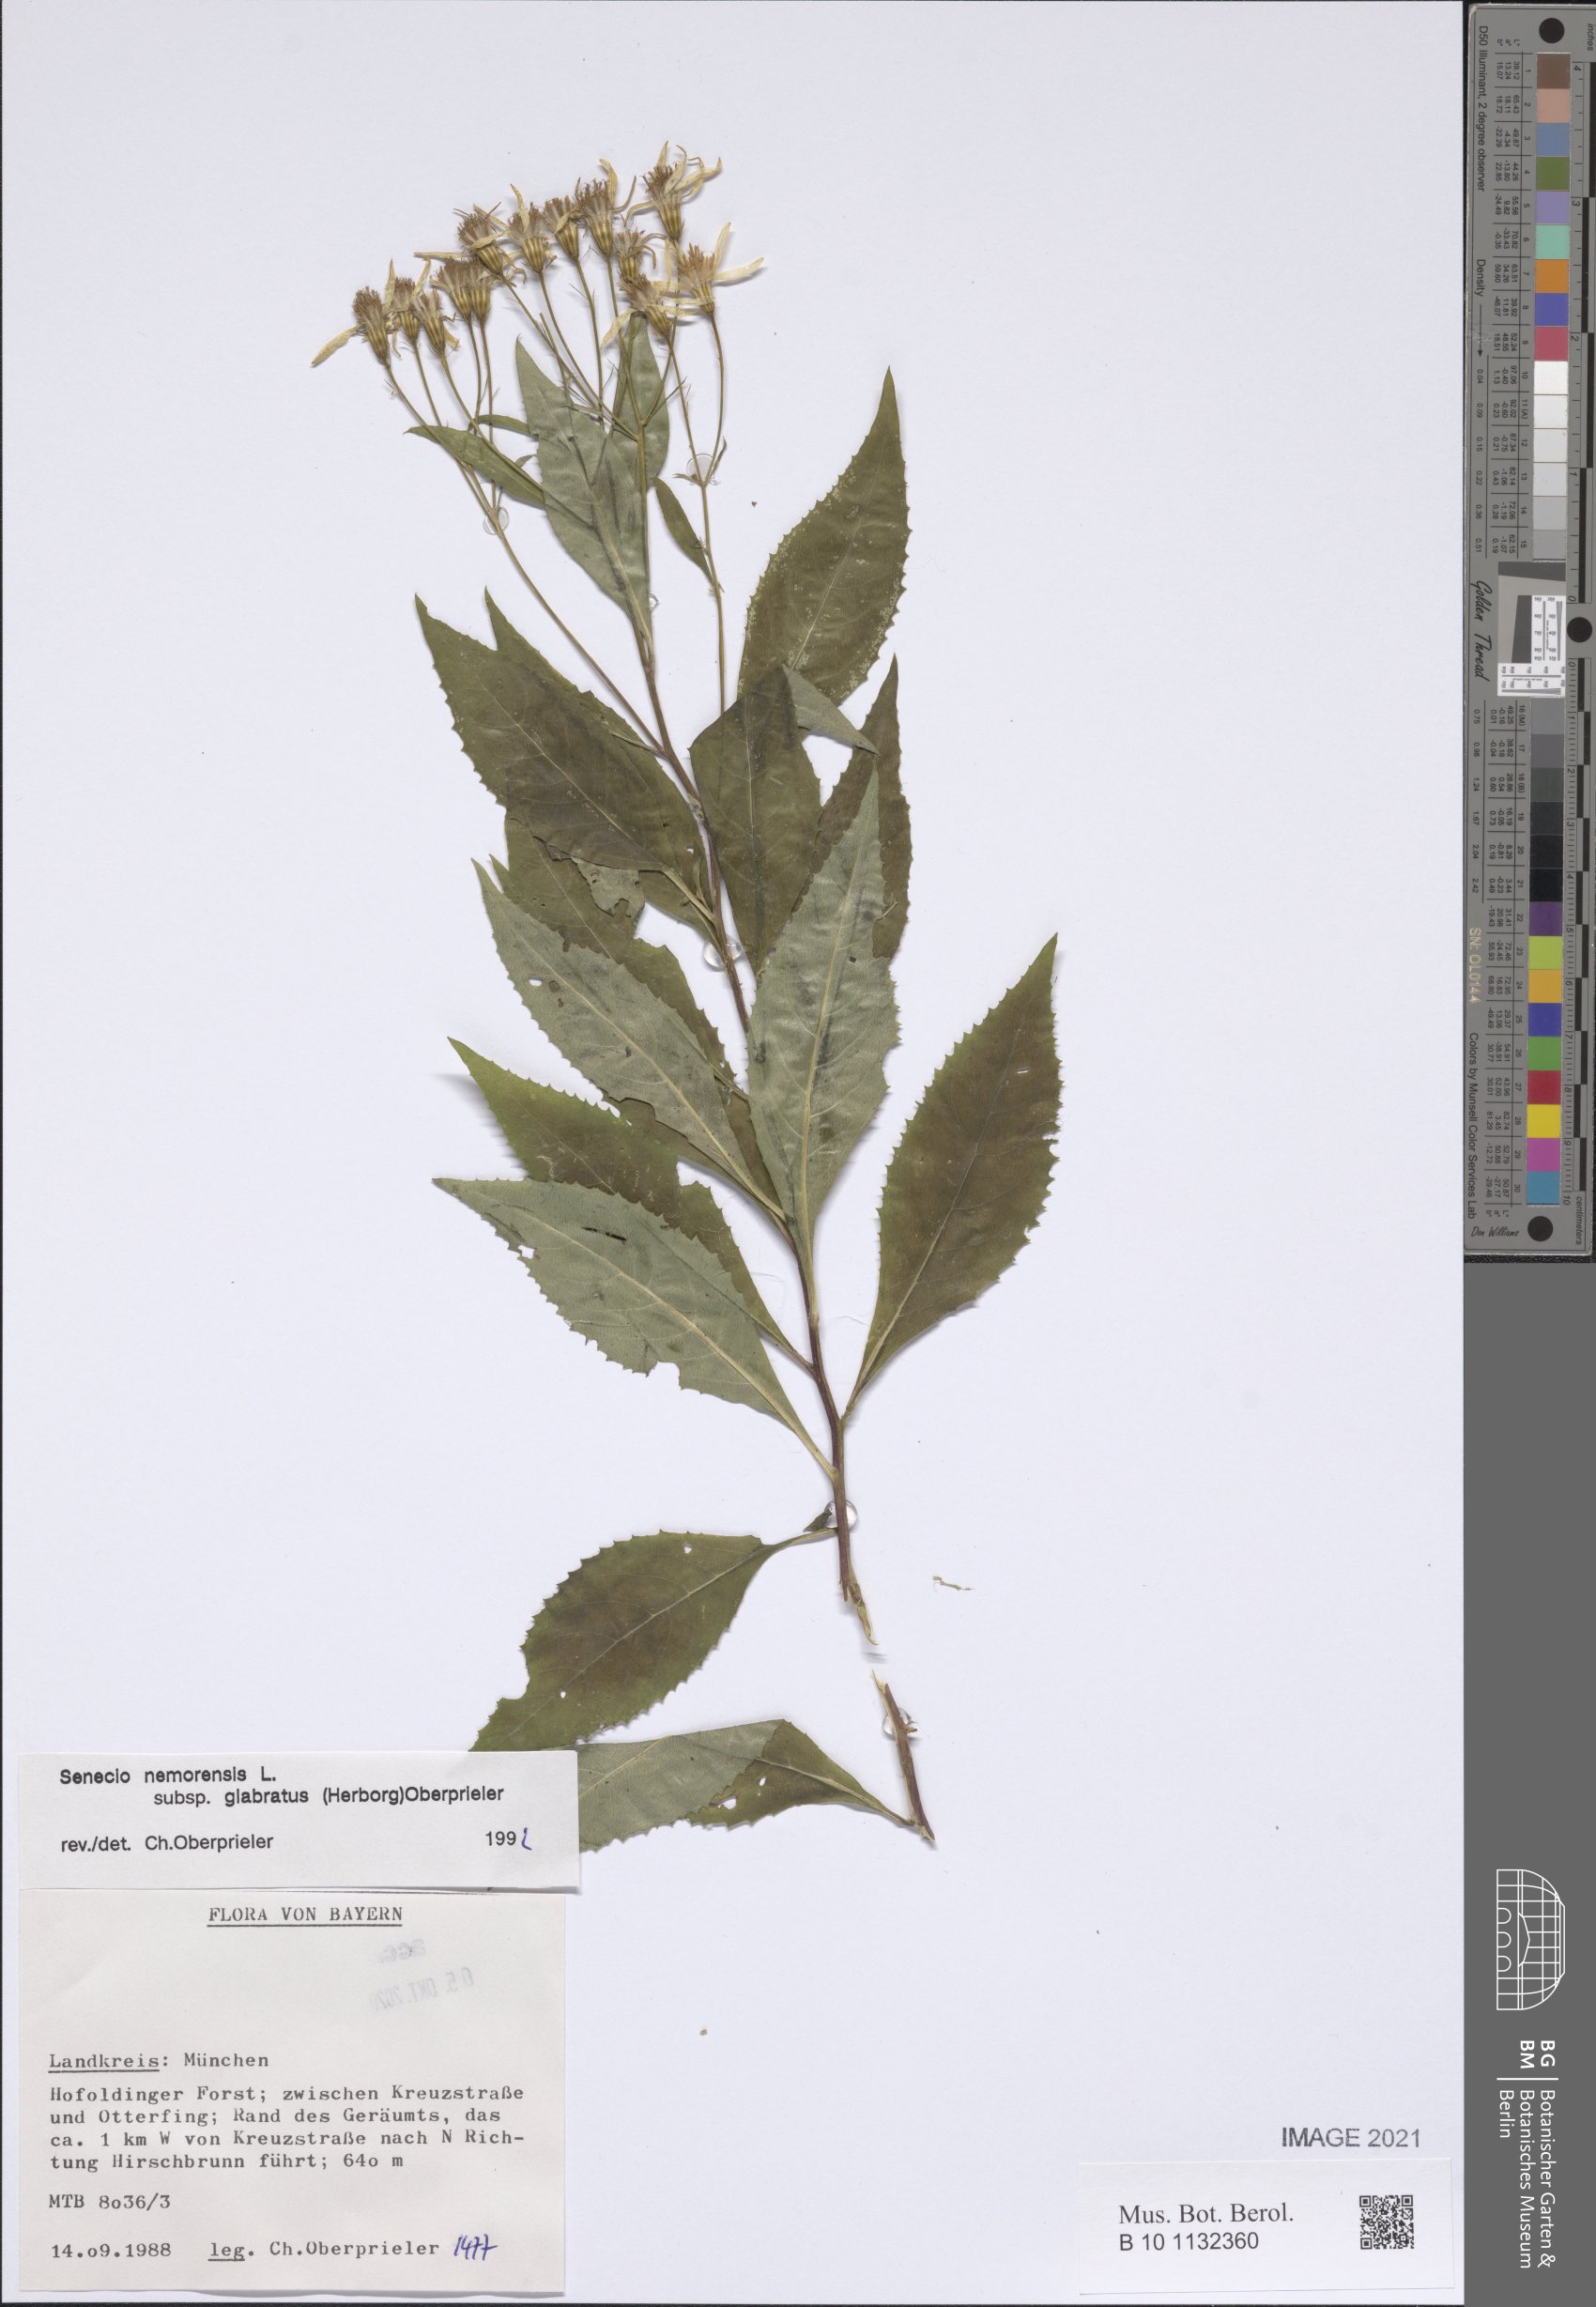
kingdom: Plantae
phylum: Tracheophyta
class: Magnoliopsida
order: Asterales
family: Asteraceae
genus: Senecio
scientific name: Senecio germanicus
